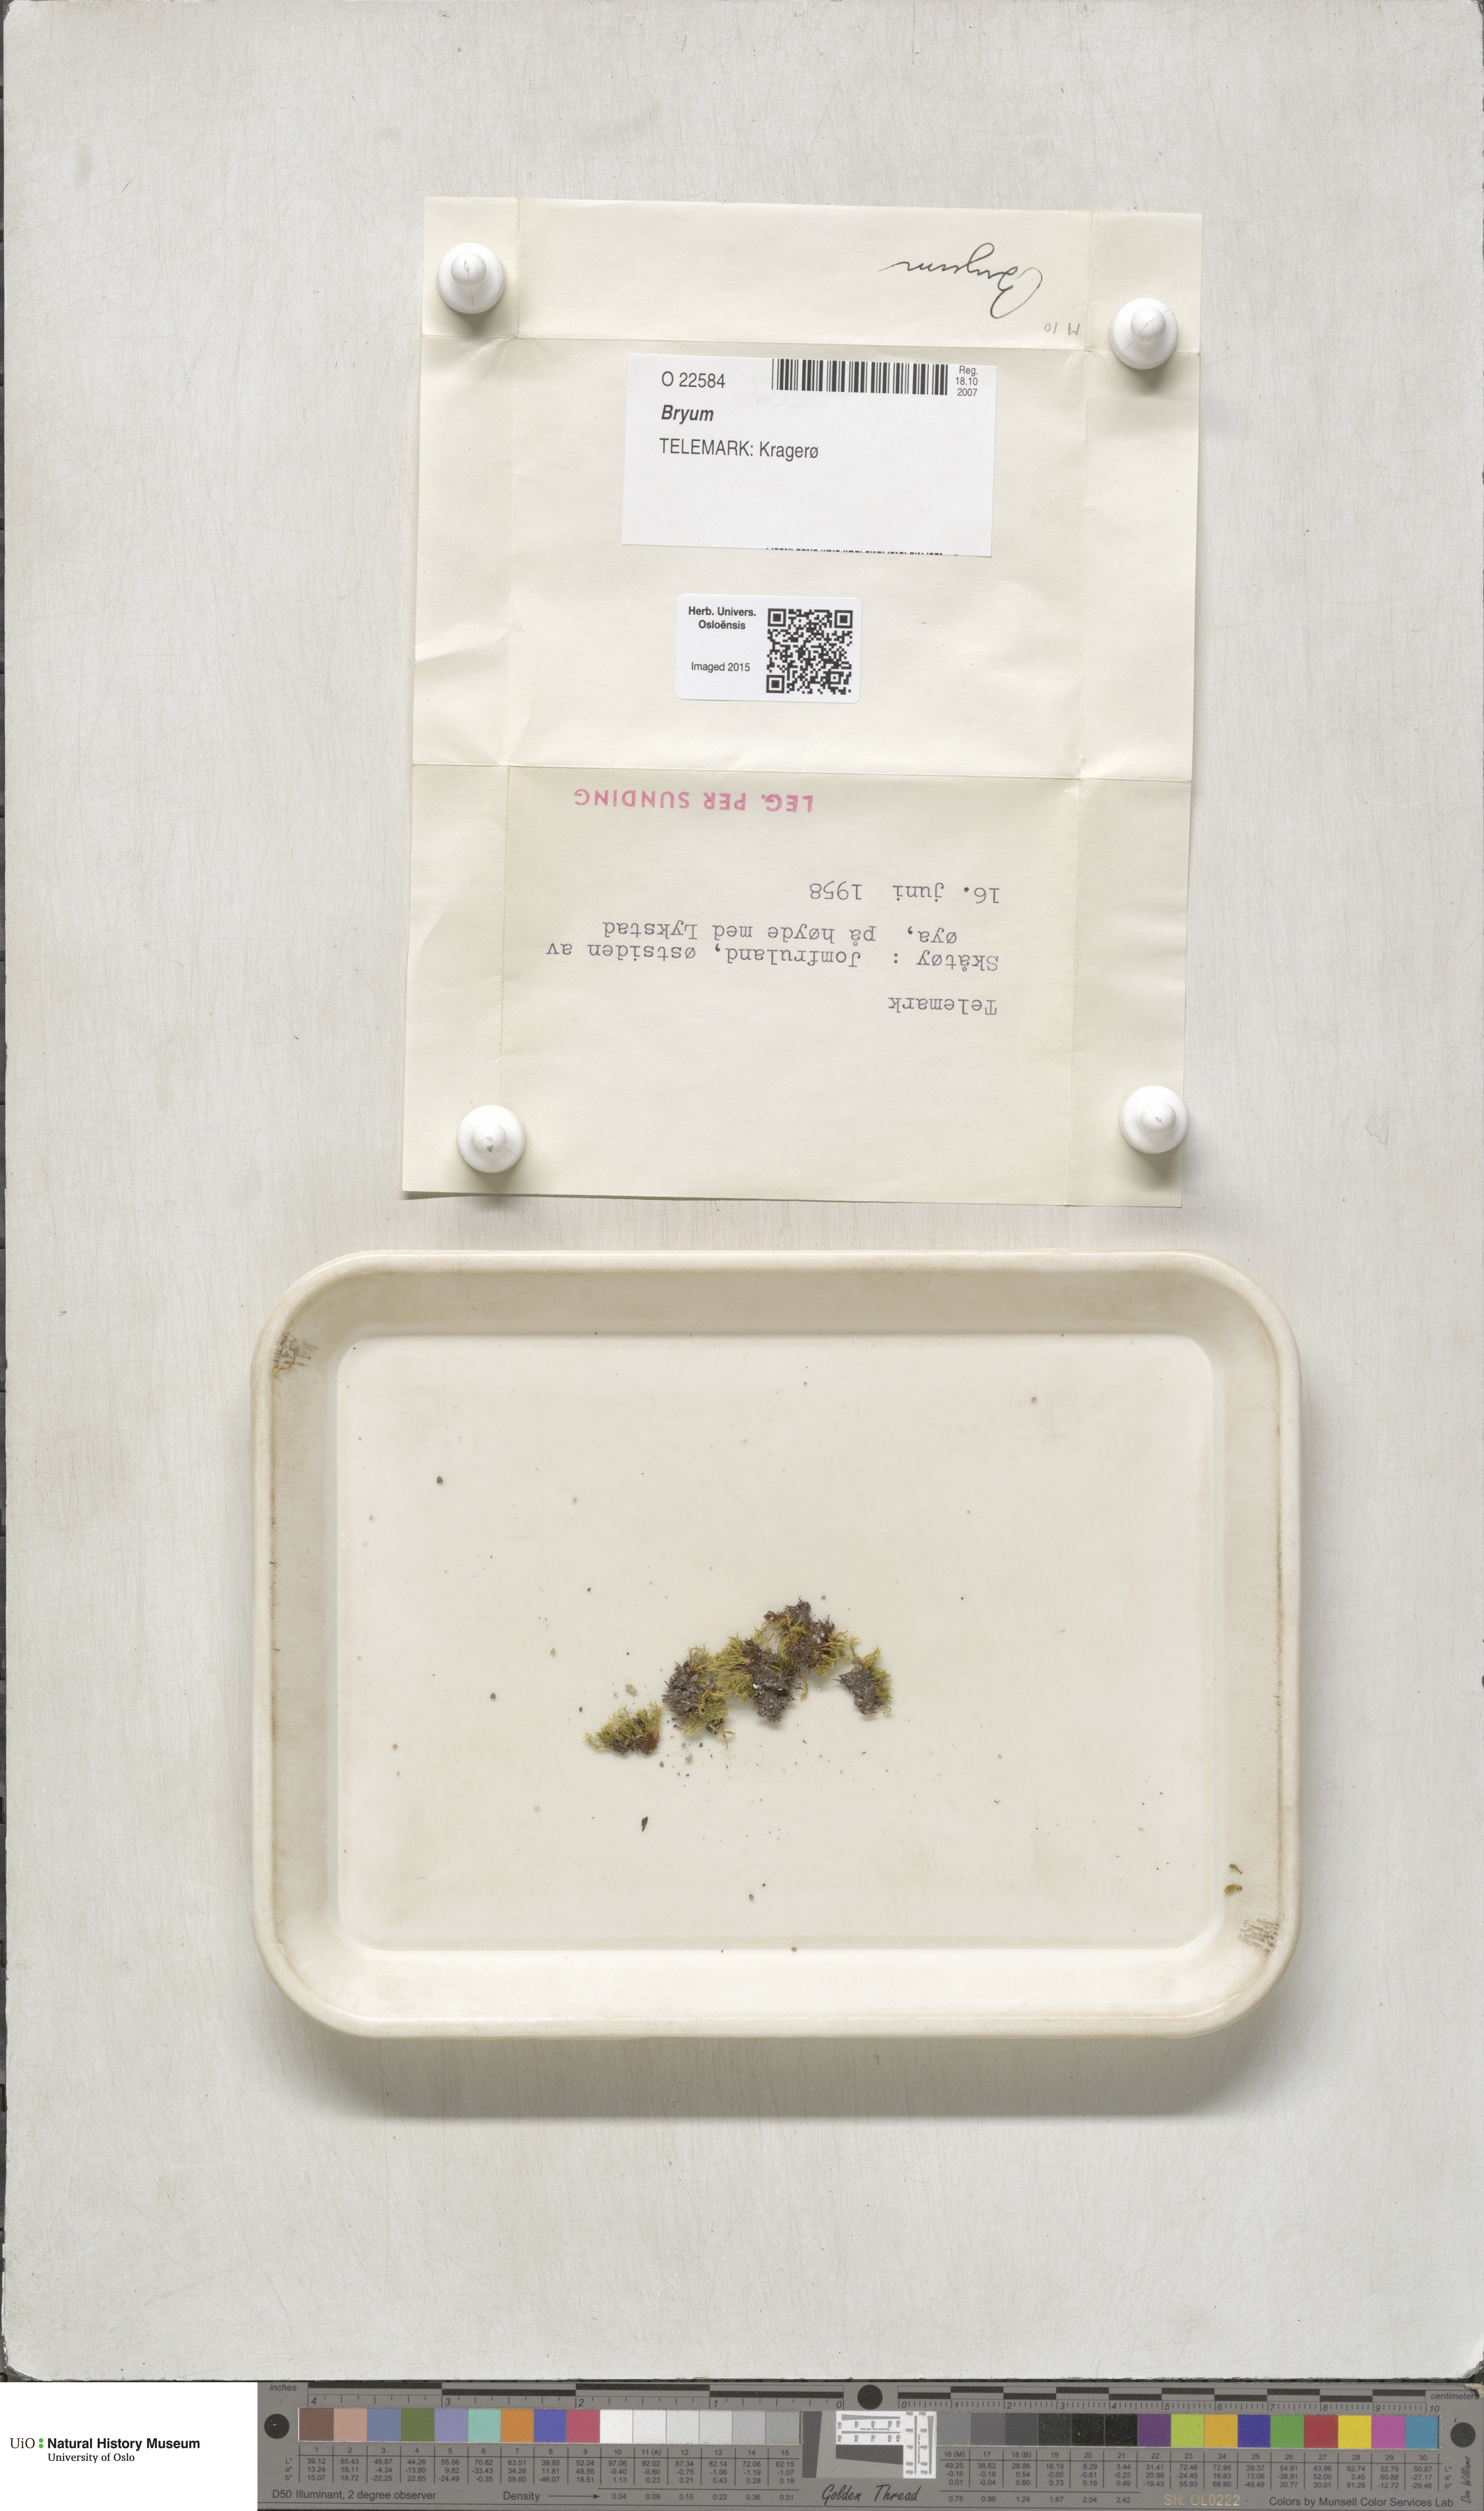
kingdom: Plantae
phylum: Bryophyta
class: Bryopsida
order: Bryales
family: Bryaceae
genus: Bryum
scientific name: Bryum
